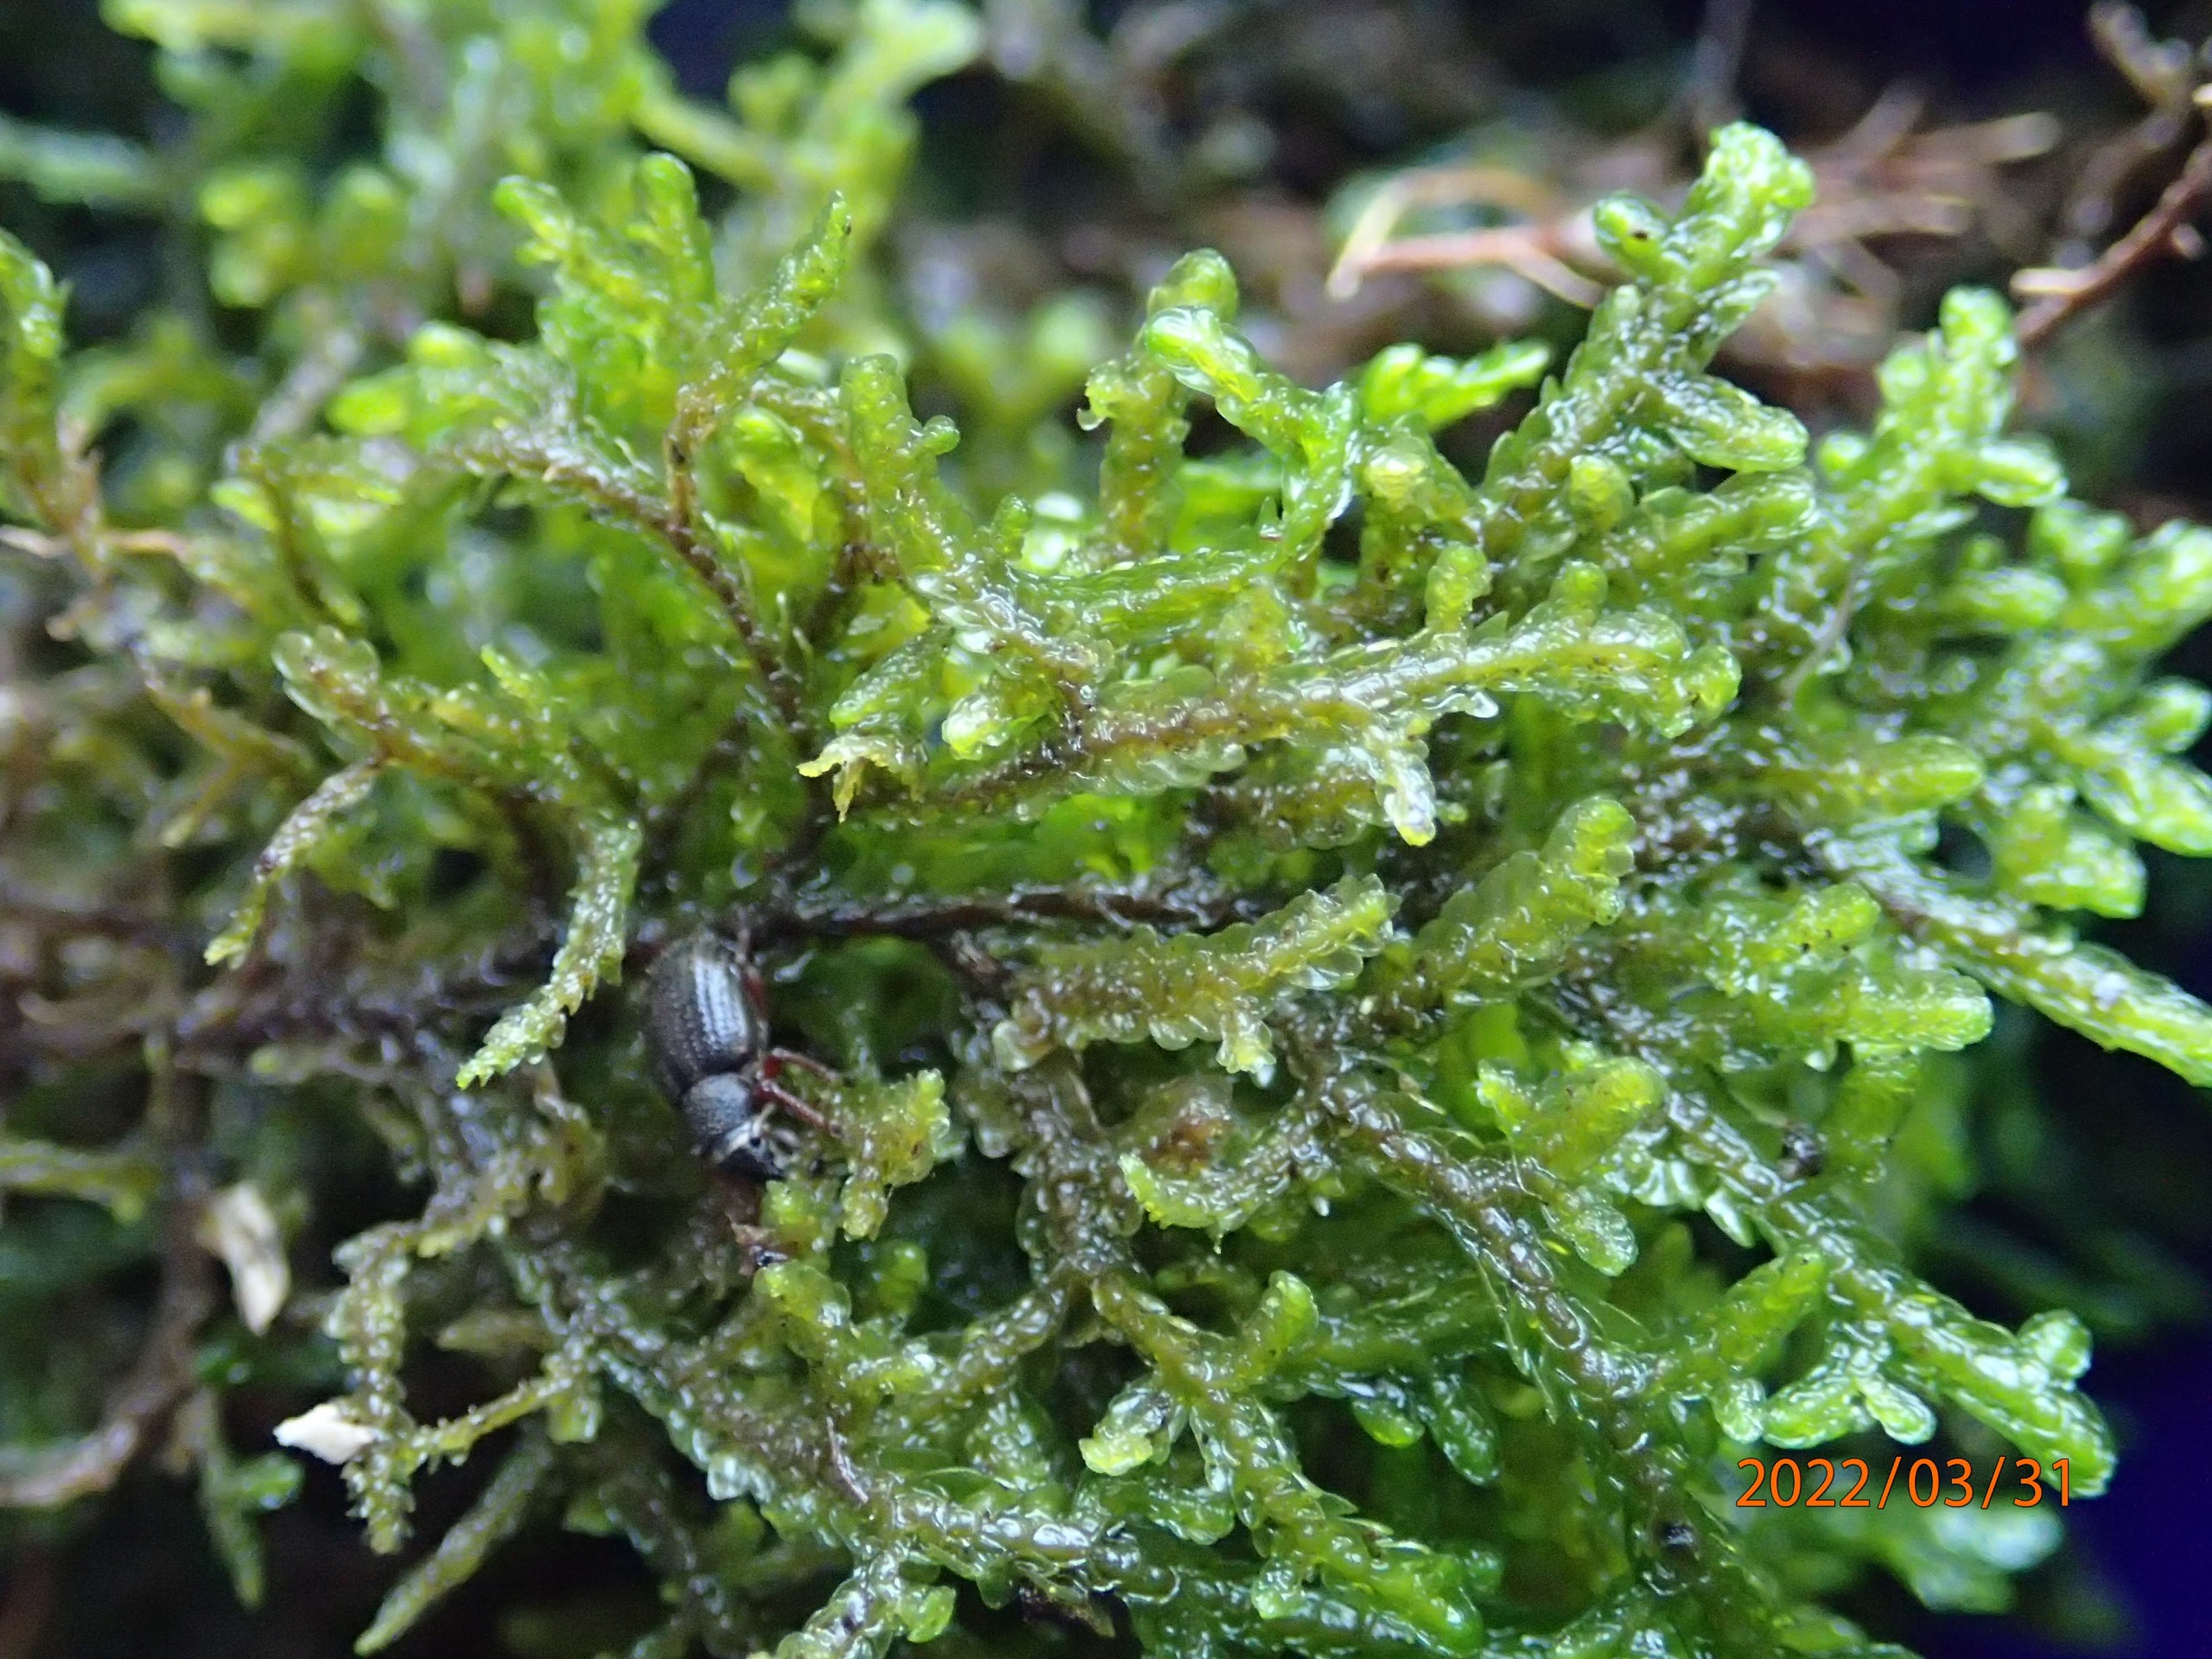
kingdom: Plantae
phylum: Marchantiophyta
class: Jungermanniopsida
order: Porellales
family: Porellaceae
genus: Porella
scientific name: Porella platyphylla
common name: Almindelig skælryg
